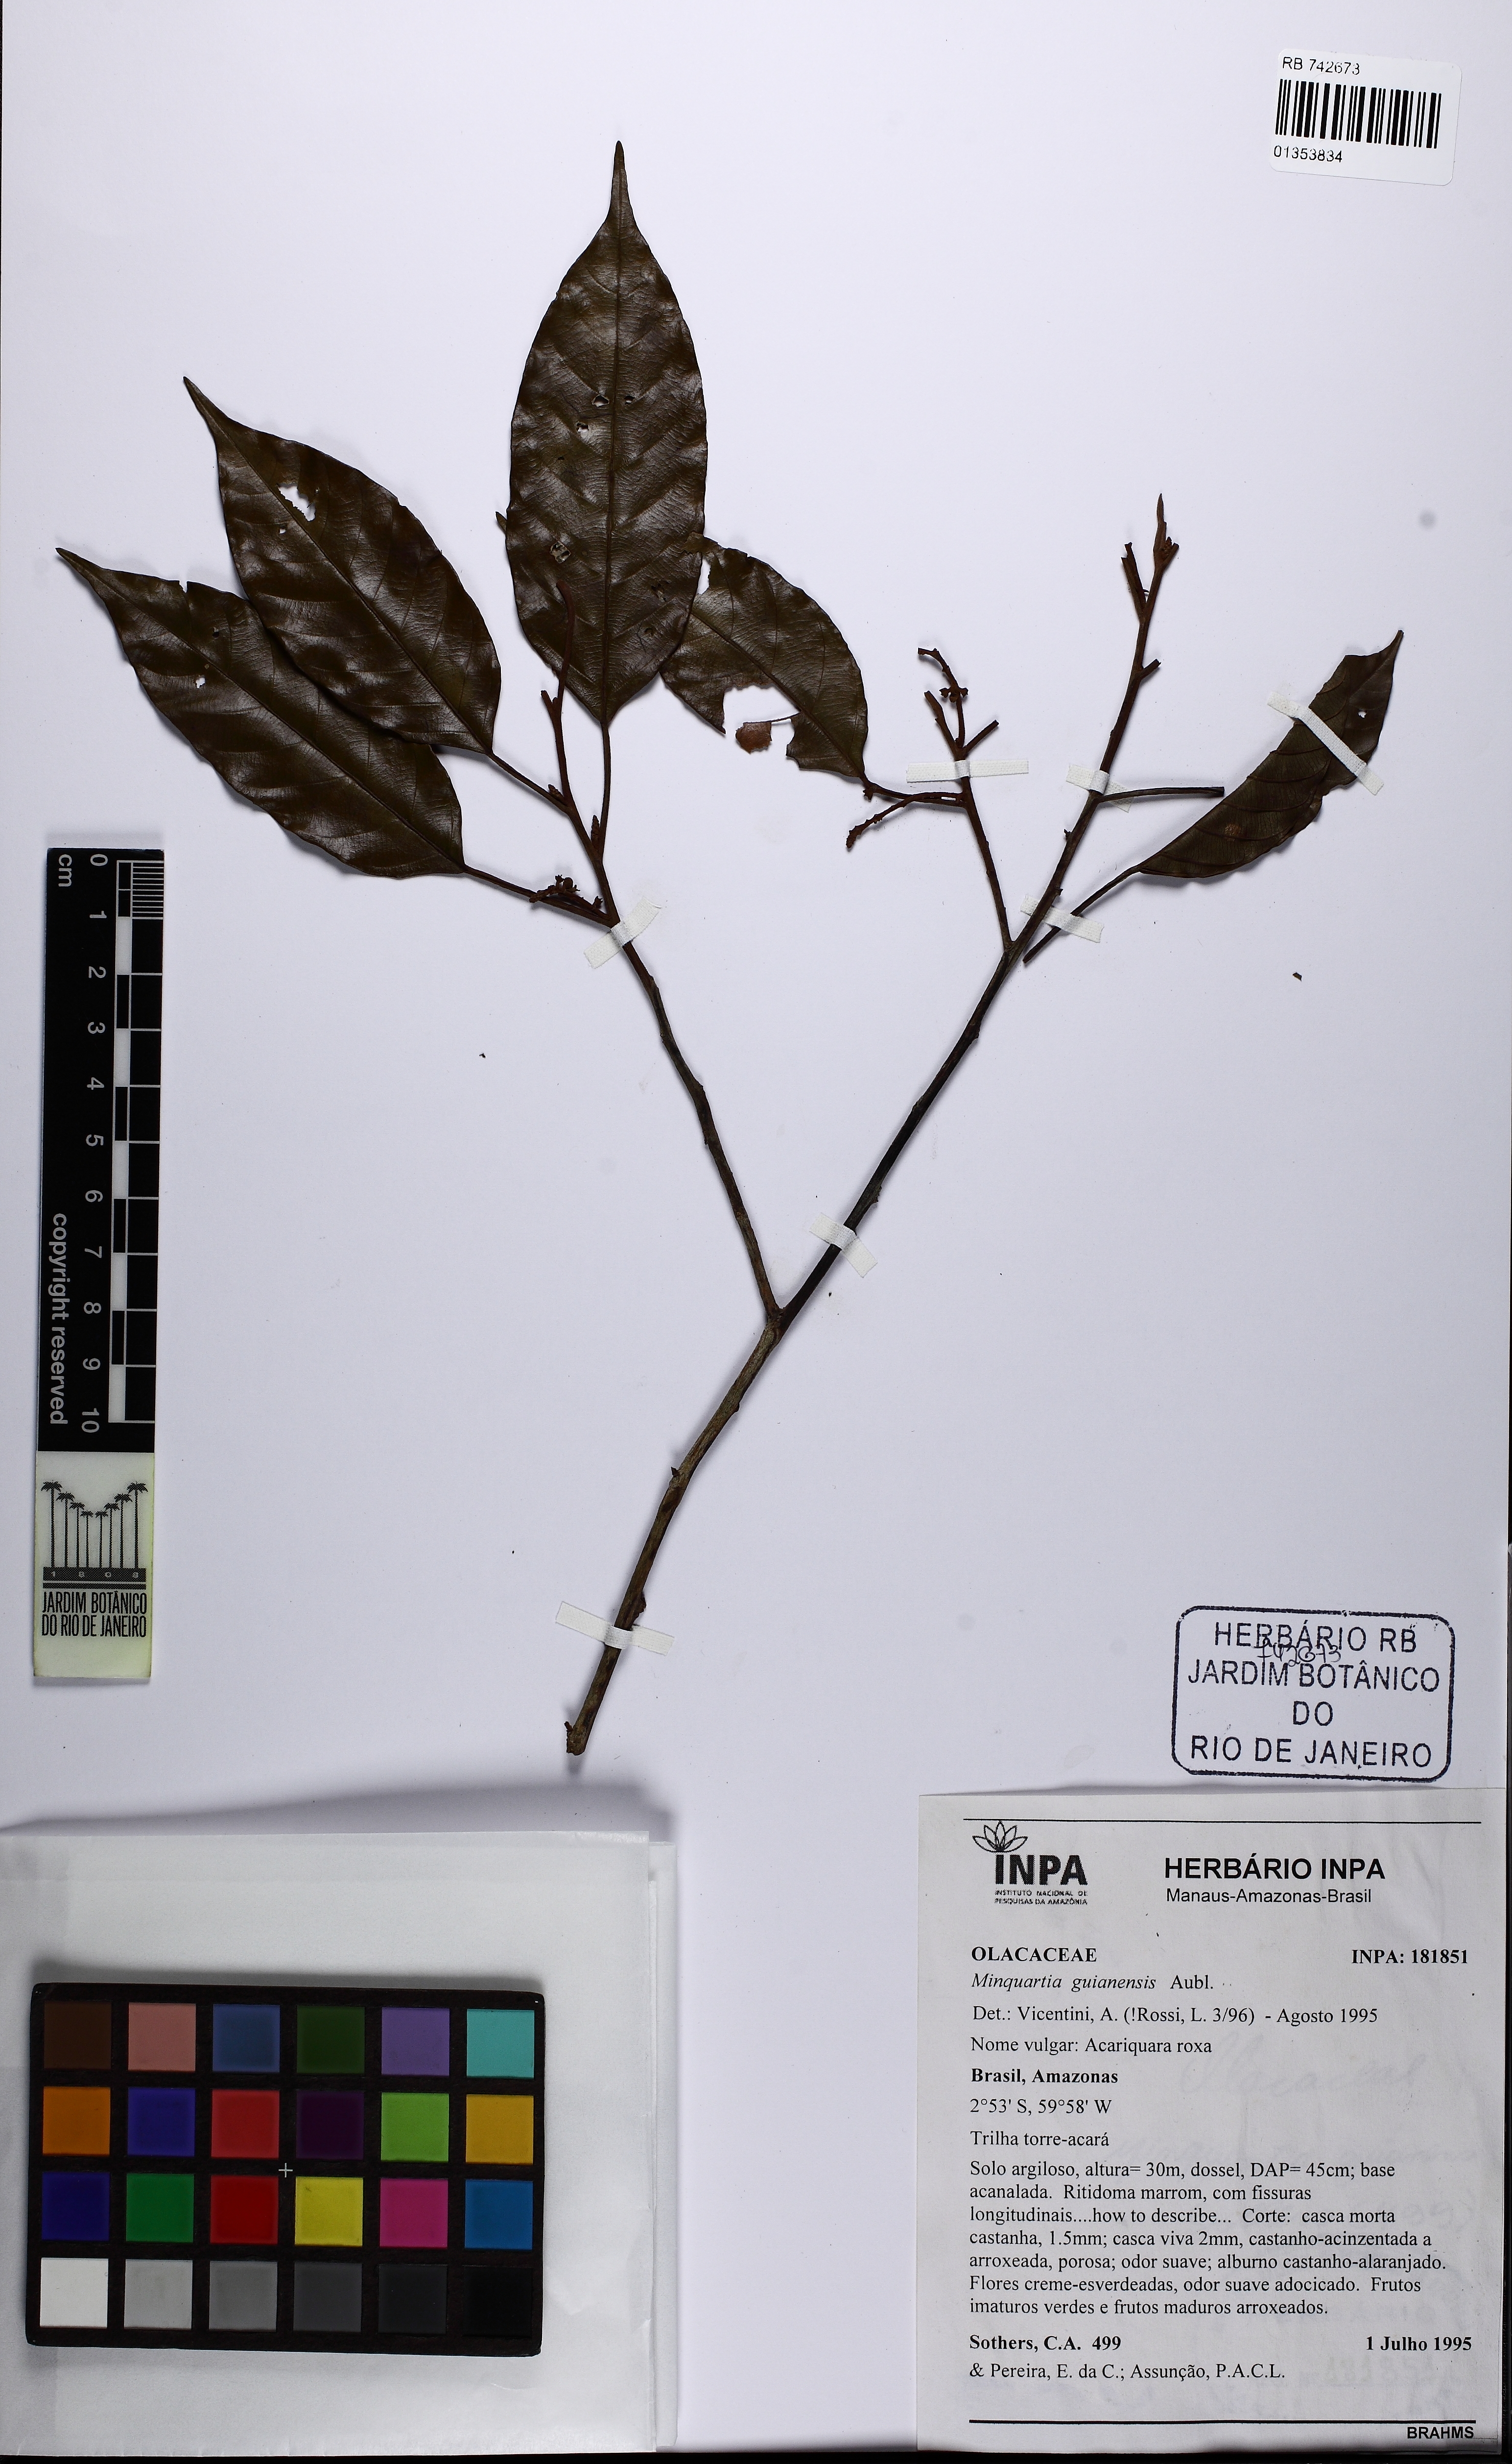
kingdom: Plantae
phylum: Tracheophyta
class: Magnoliopsida
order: Santalales
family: Coulaceae
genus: Minquartia
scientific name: Minquartia guianensis
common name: Black manwood
